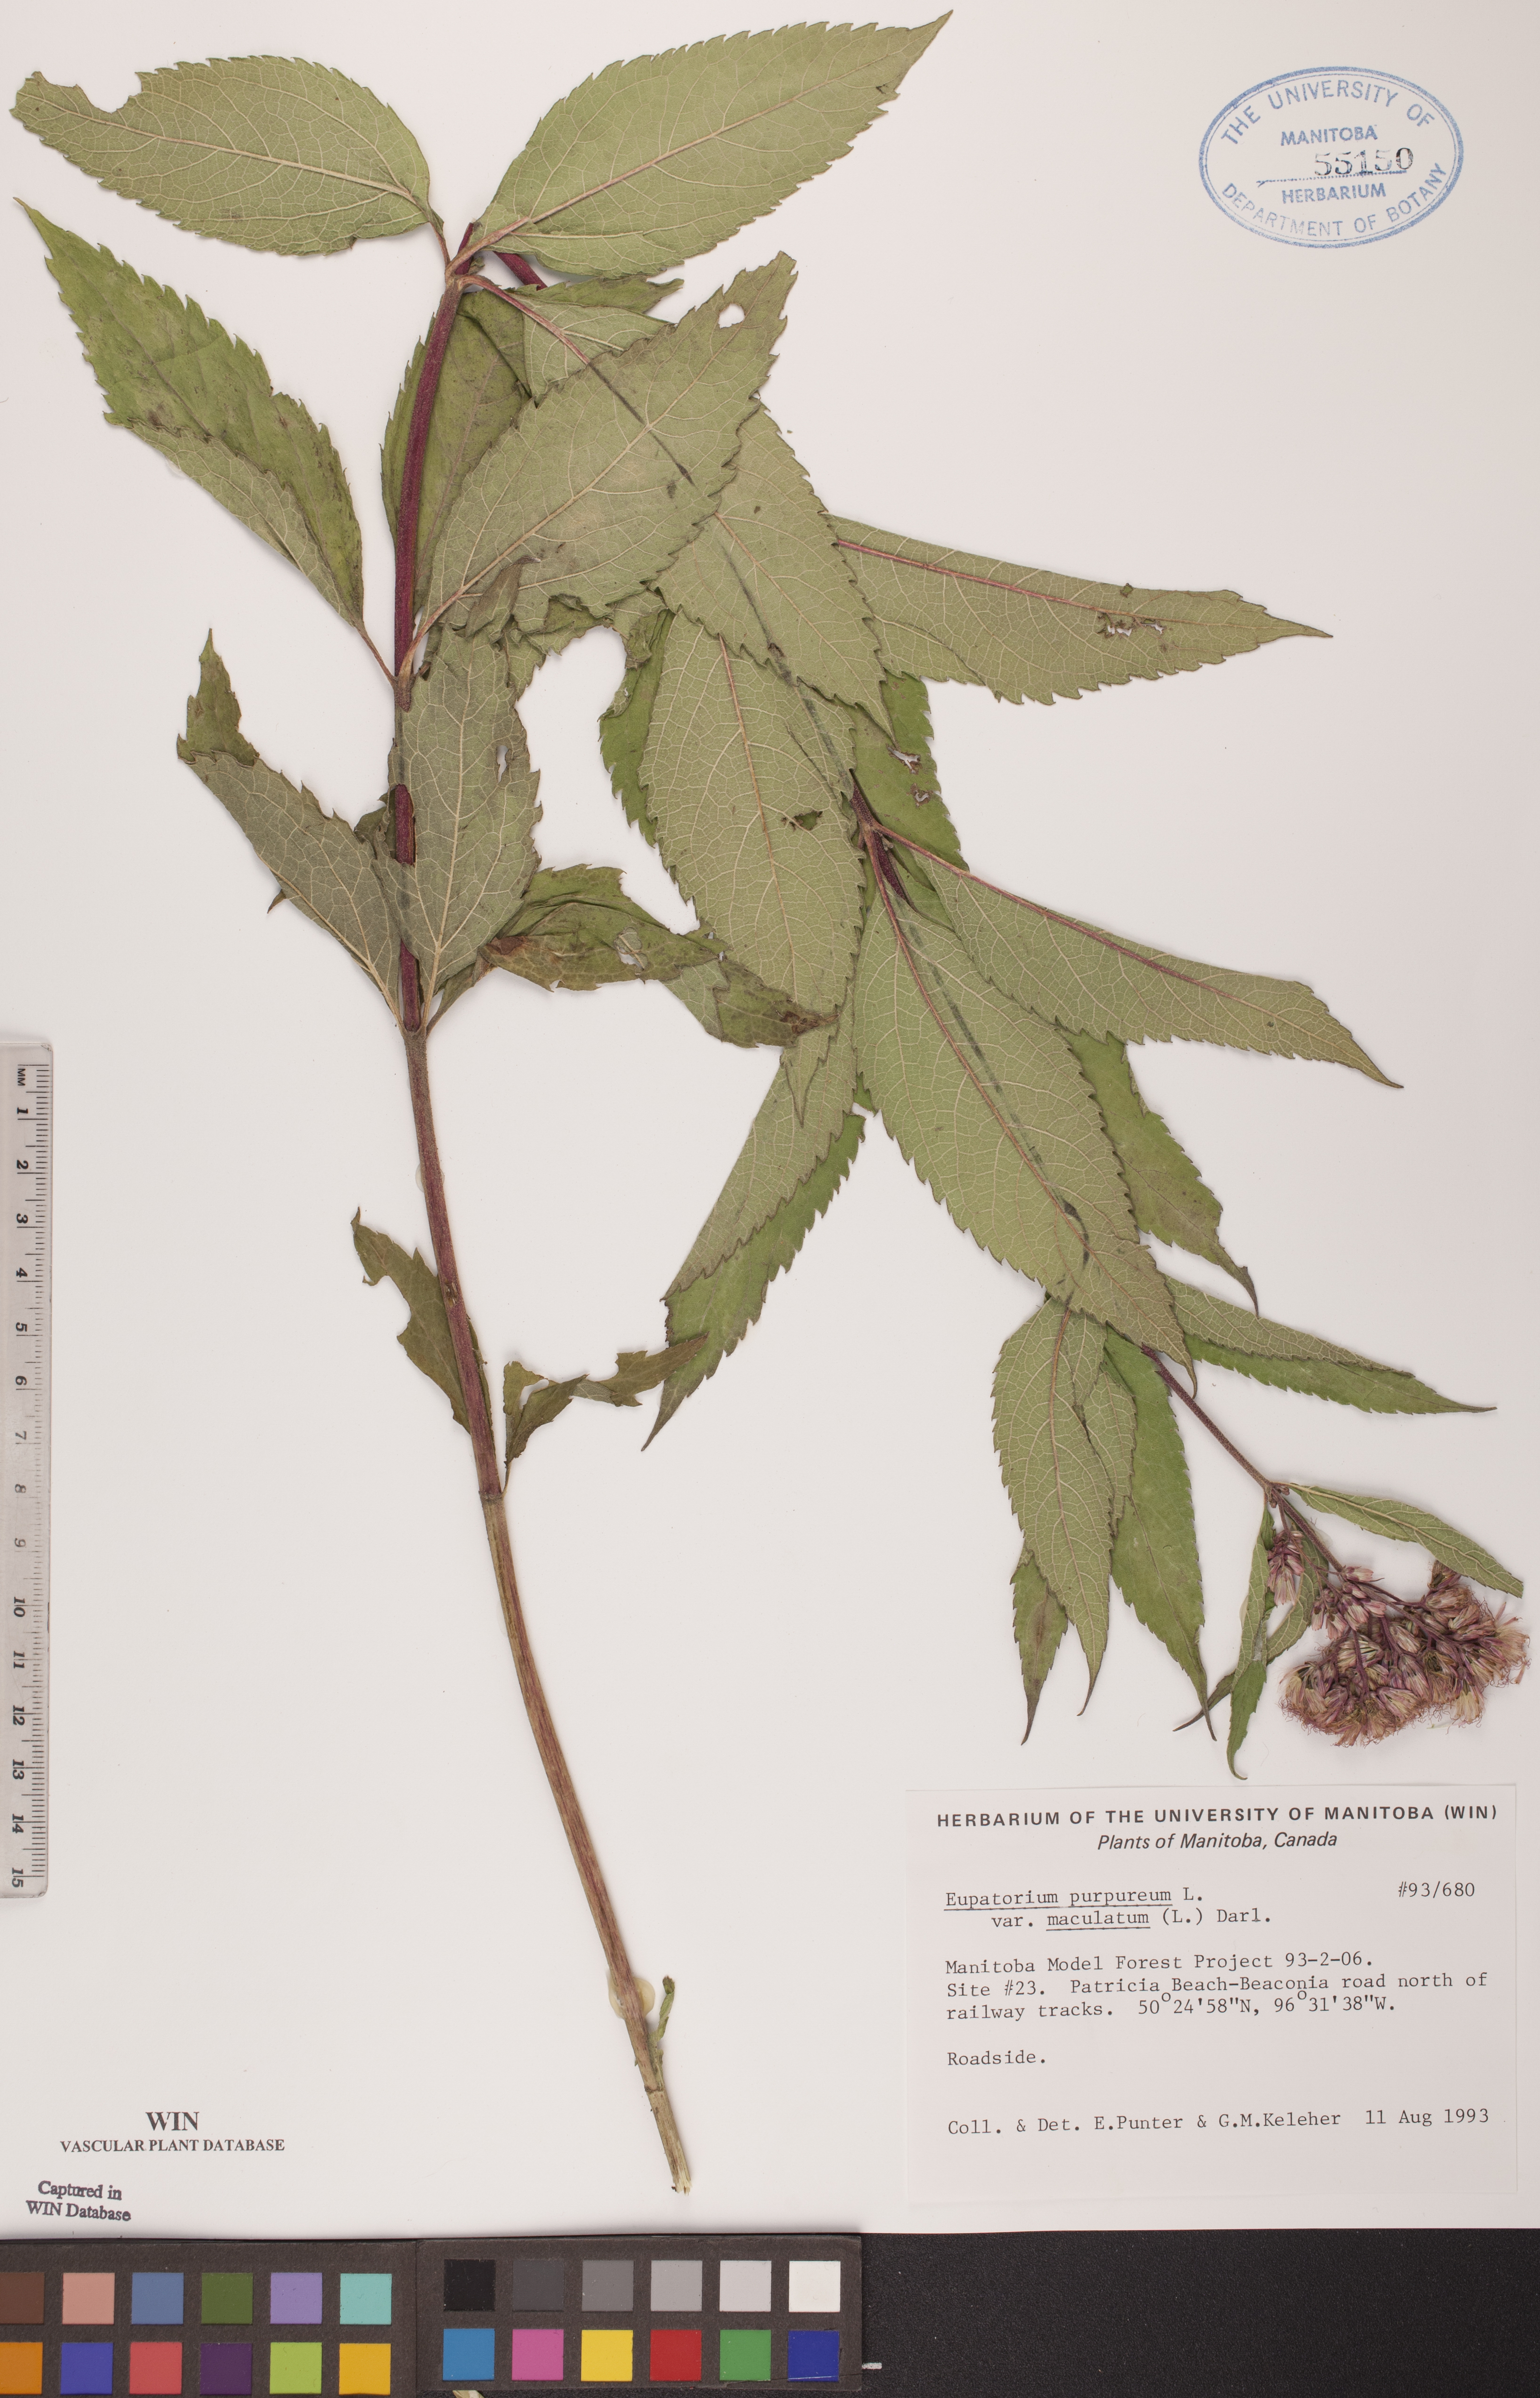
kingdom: Plantae
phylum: Tracheophyta
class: Magnoliopsida
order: Asterales
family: Asteraceae
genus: Eutrochium
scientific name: Eutrochium maculatum
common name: Spotted joe pye weed
